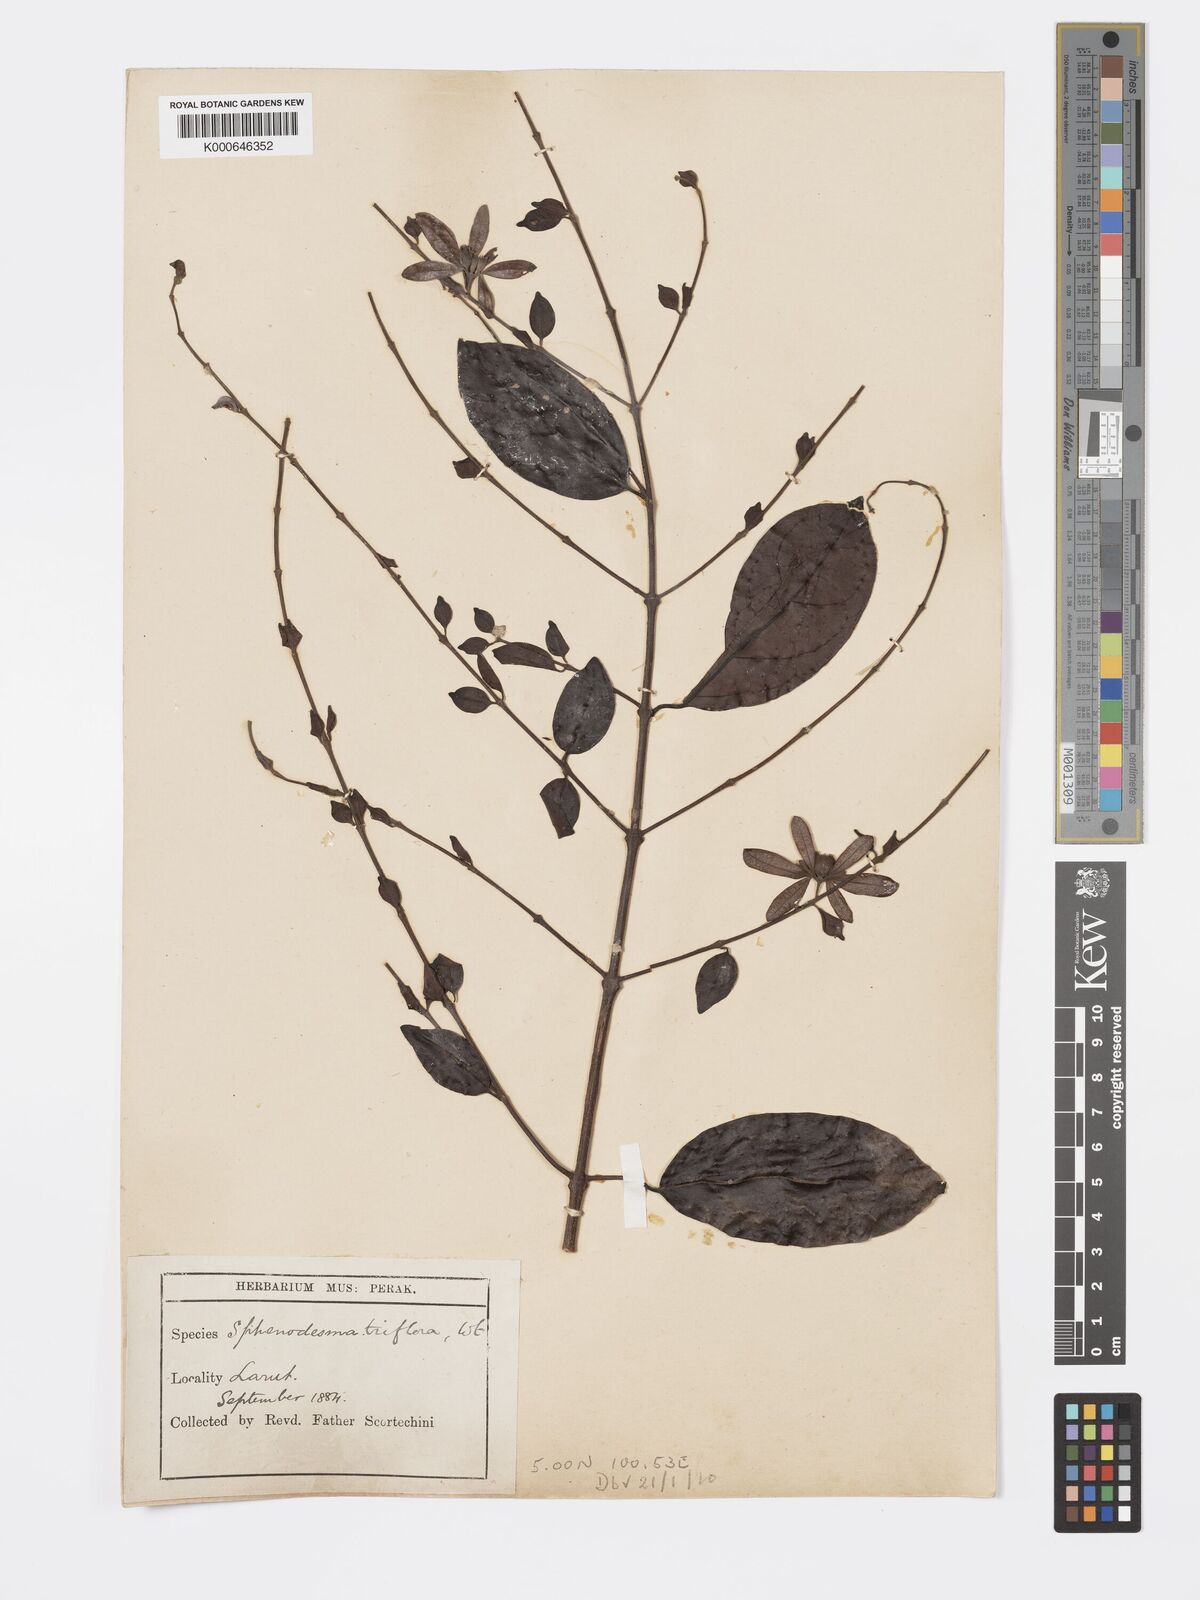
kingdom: Plantae
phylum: Tracheophyta
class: Magnoliopsida
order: Lamiales
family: Lamiaceae
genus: Sphenodesme
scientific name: Sphenodesme
